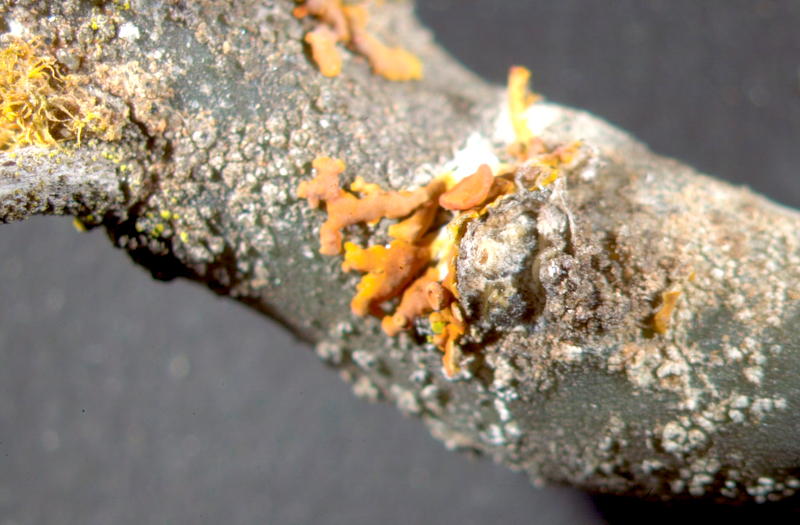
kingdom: Fungi
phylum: Ascomycota
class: Lecanoromycetes
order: Teloschistales
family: Teloschistaceae
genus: Xanthoria
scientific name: Xanthoria
